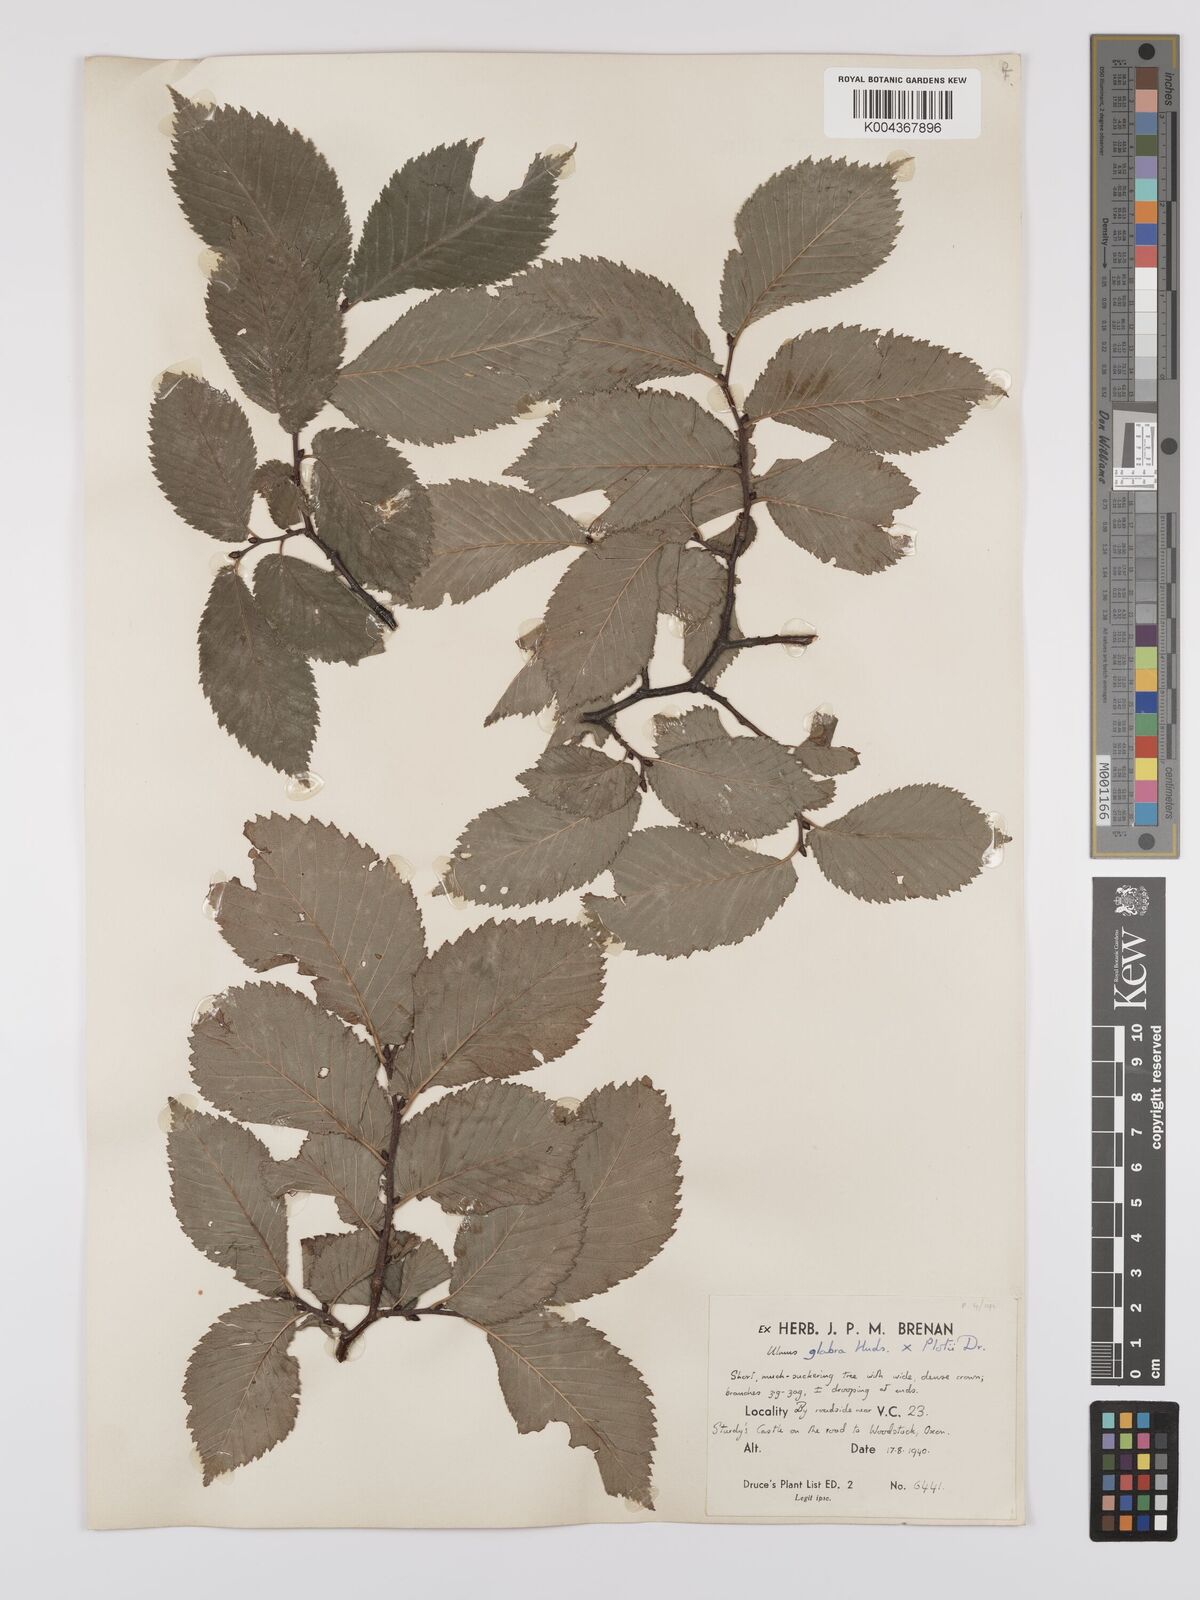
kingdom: Plantae
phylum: Tracheophyta
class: Magnoliopsida
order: Rosales
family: Ulmaceae
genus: Ulmus
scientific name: Ulmus glabra
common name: Wych elm
